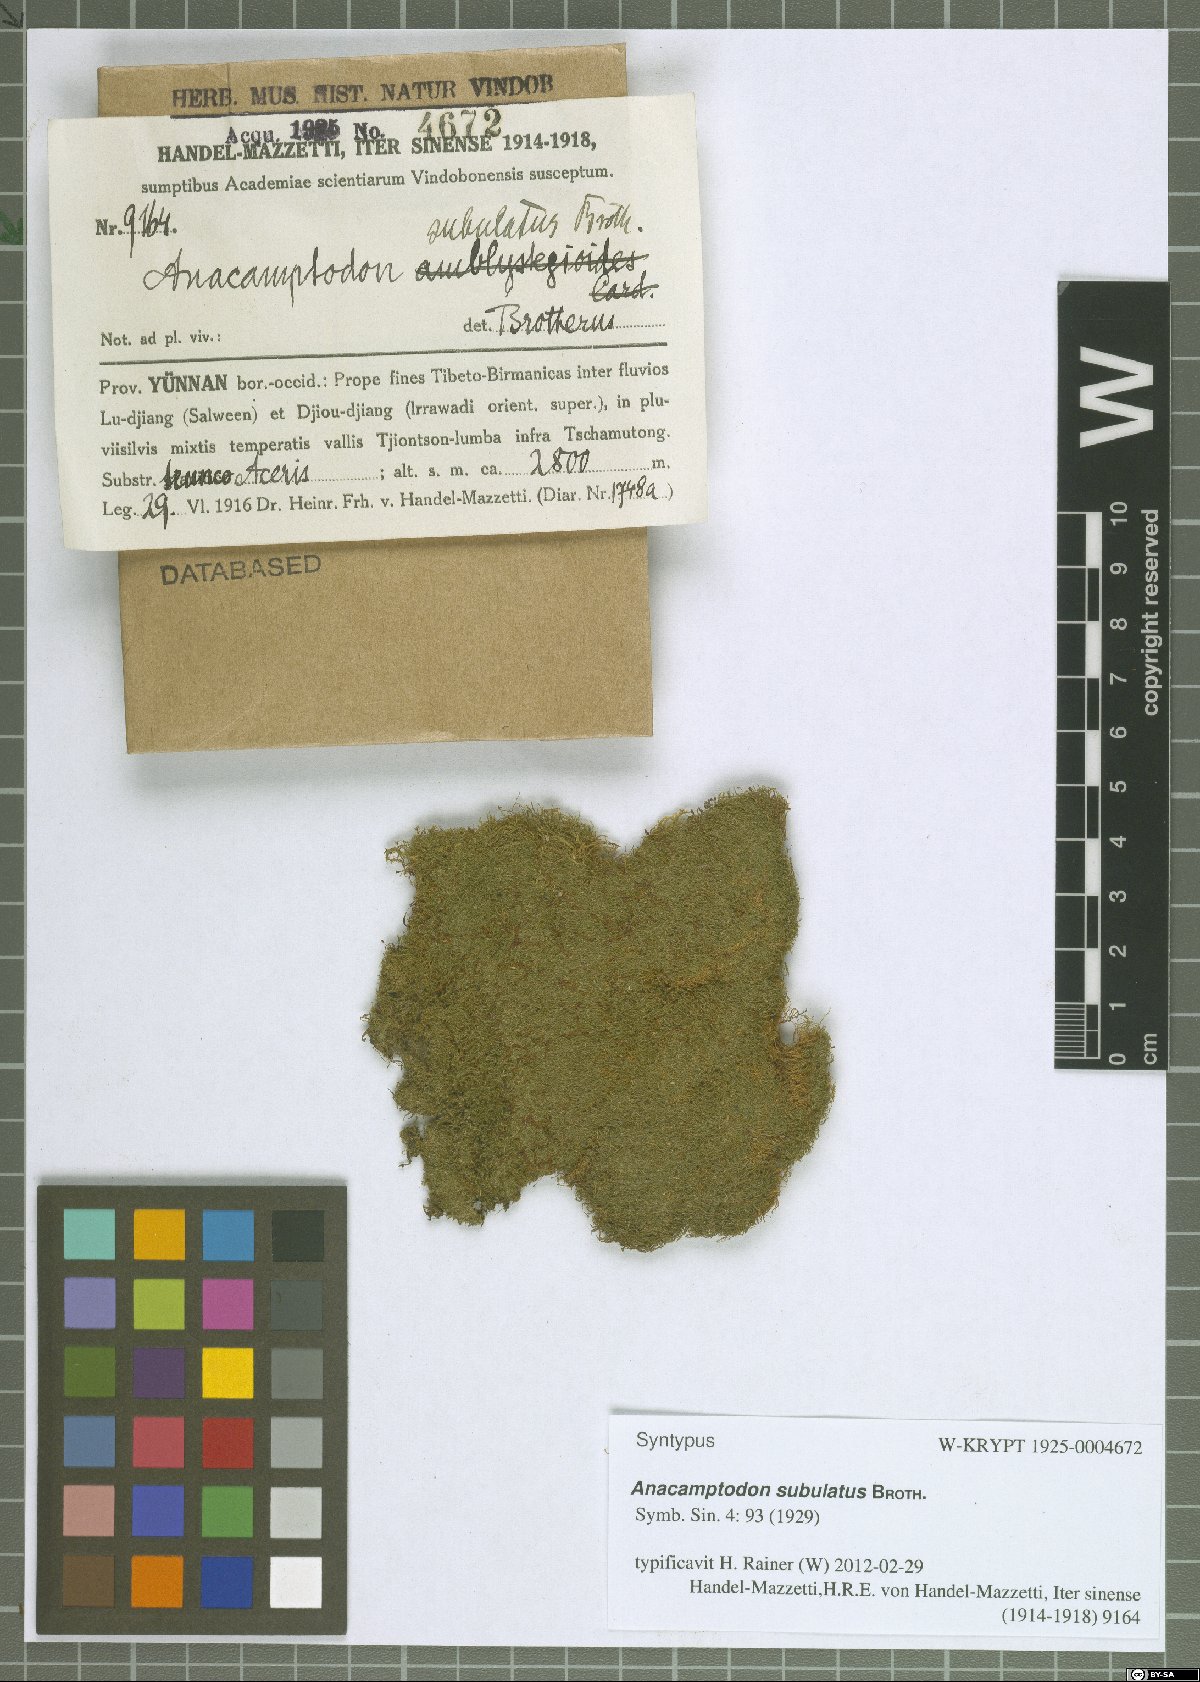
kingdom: Plantae
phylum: Bryophyta
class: Bryopsida
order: Hypnales
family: Amblystegiaceae
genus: Anacamptodon
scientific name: Anacamptodon latidens
